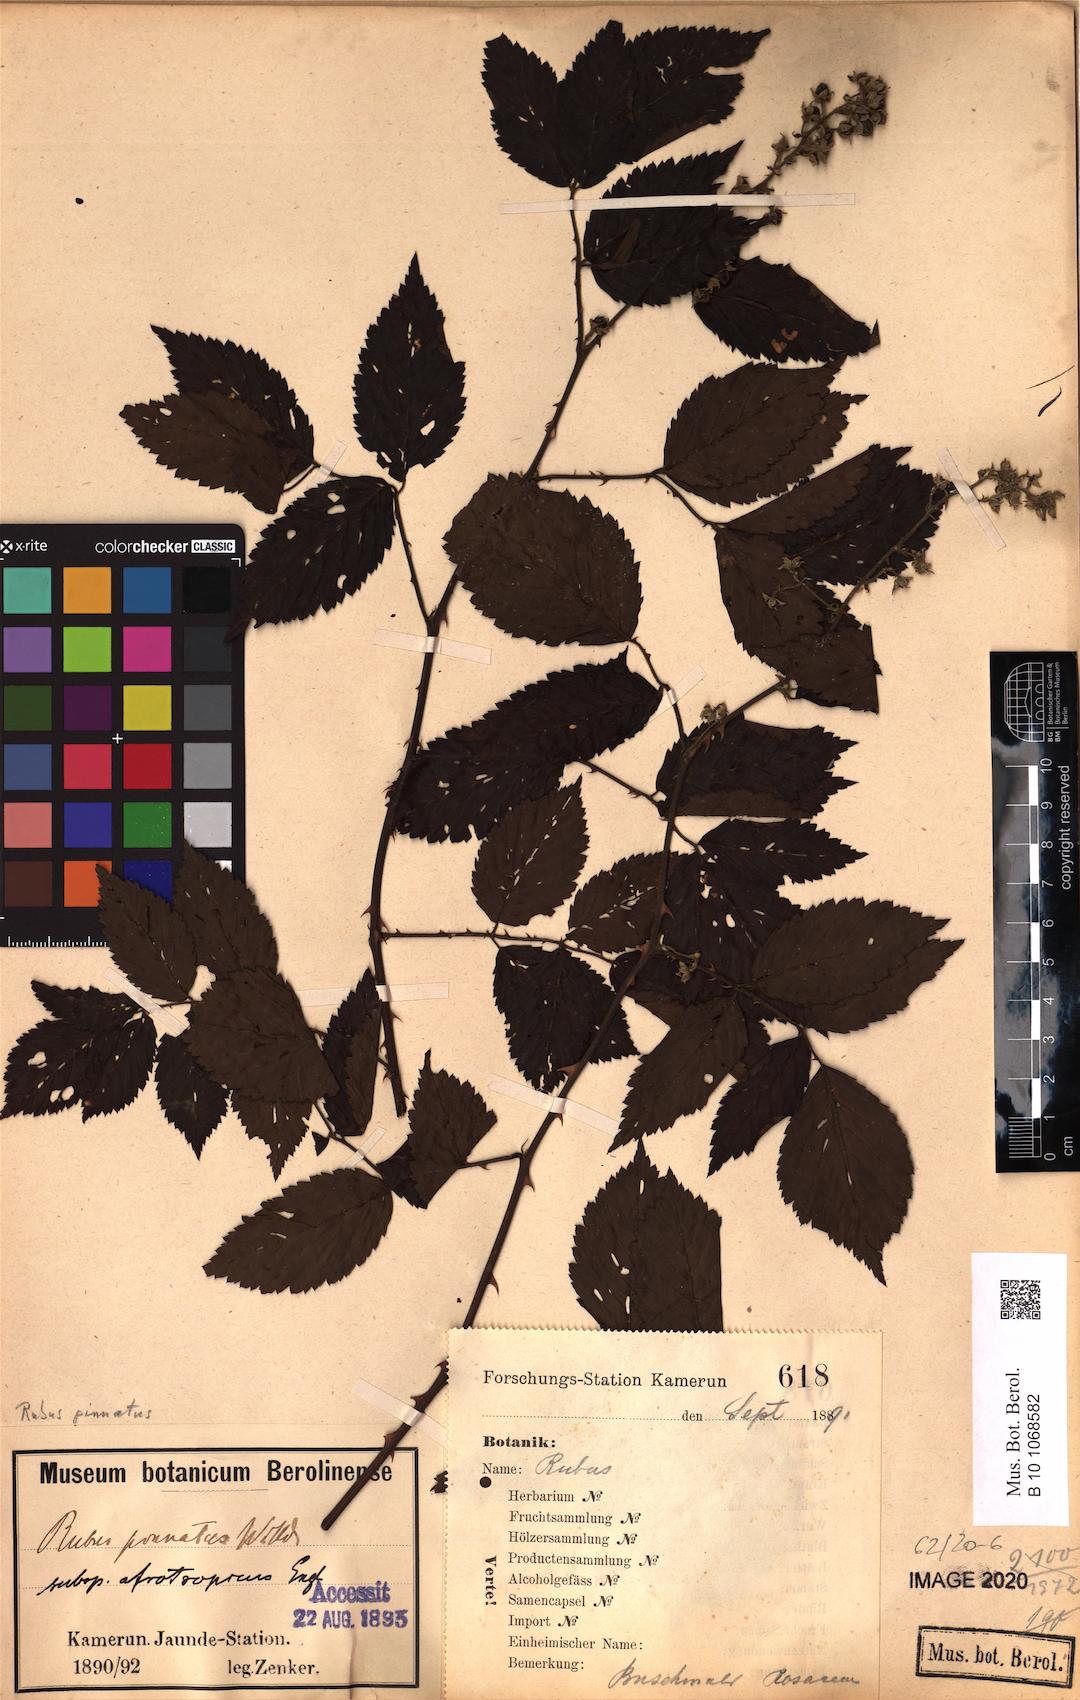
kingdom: Plantae
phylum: Tracheophyta
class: Magnoliopsida
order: Rosales
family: Rosaceae
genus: Rubus
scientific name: Rubus pinnatus
